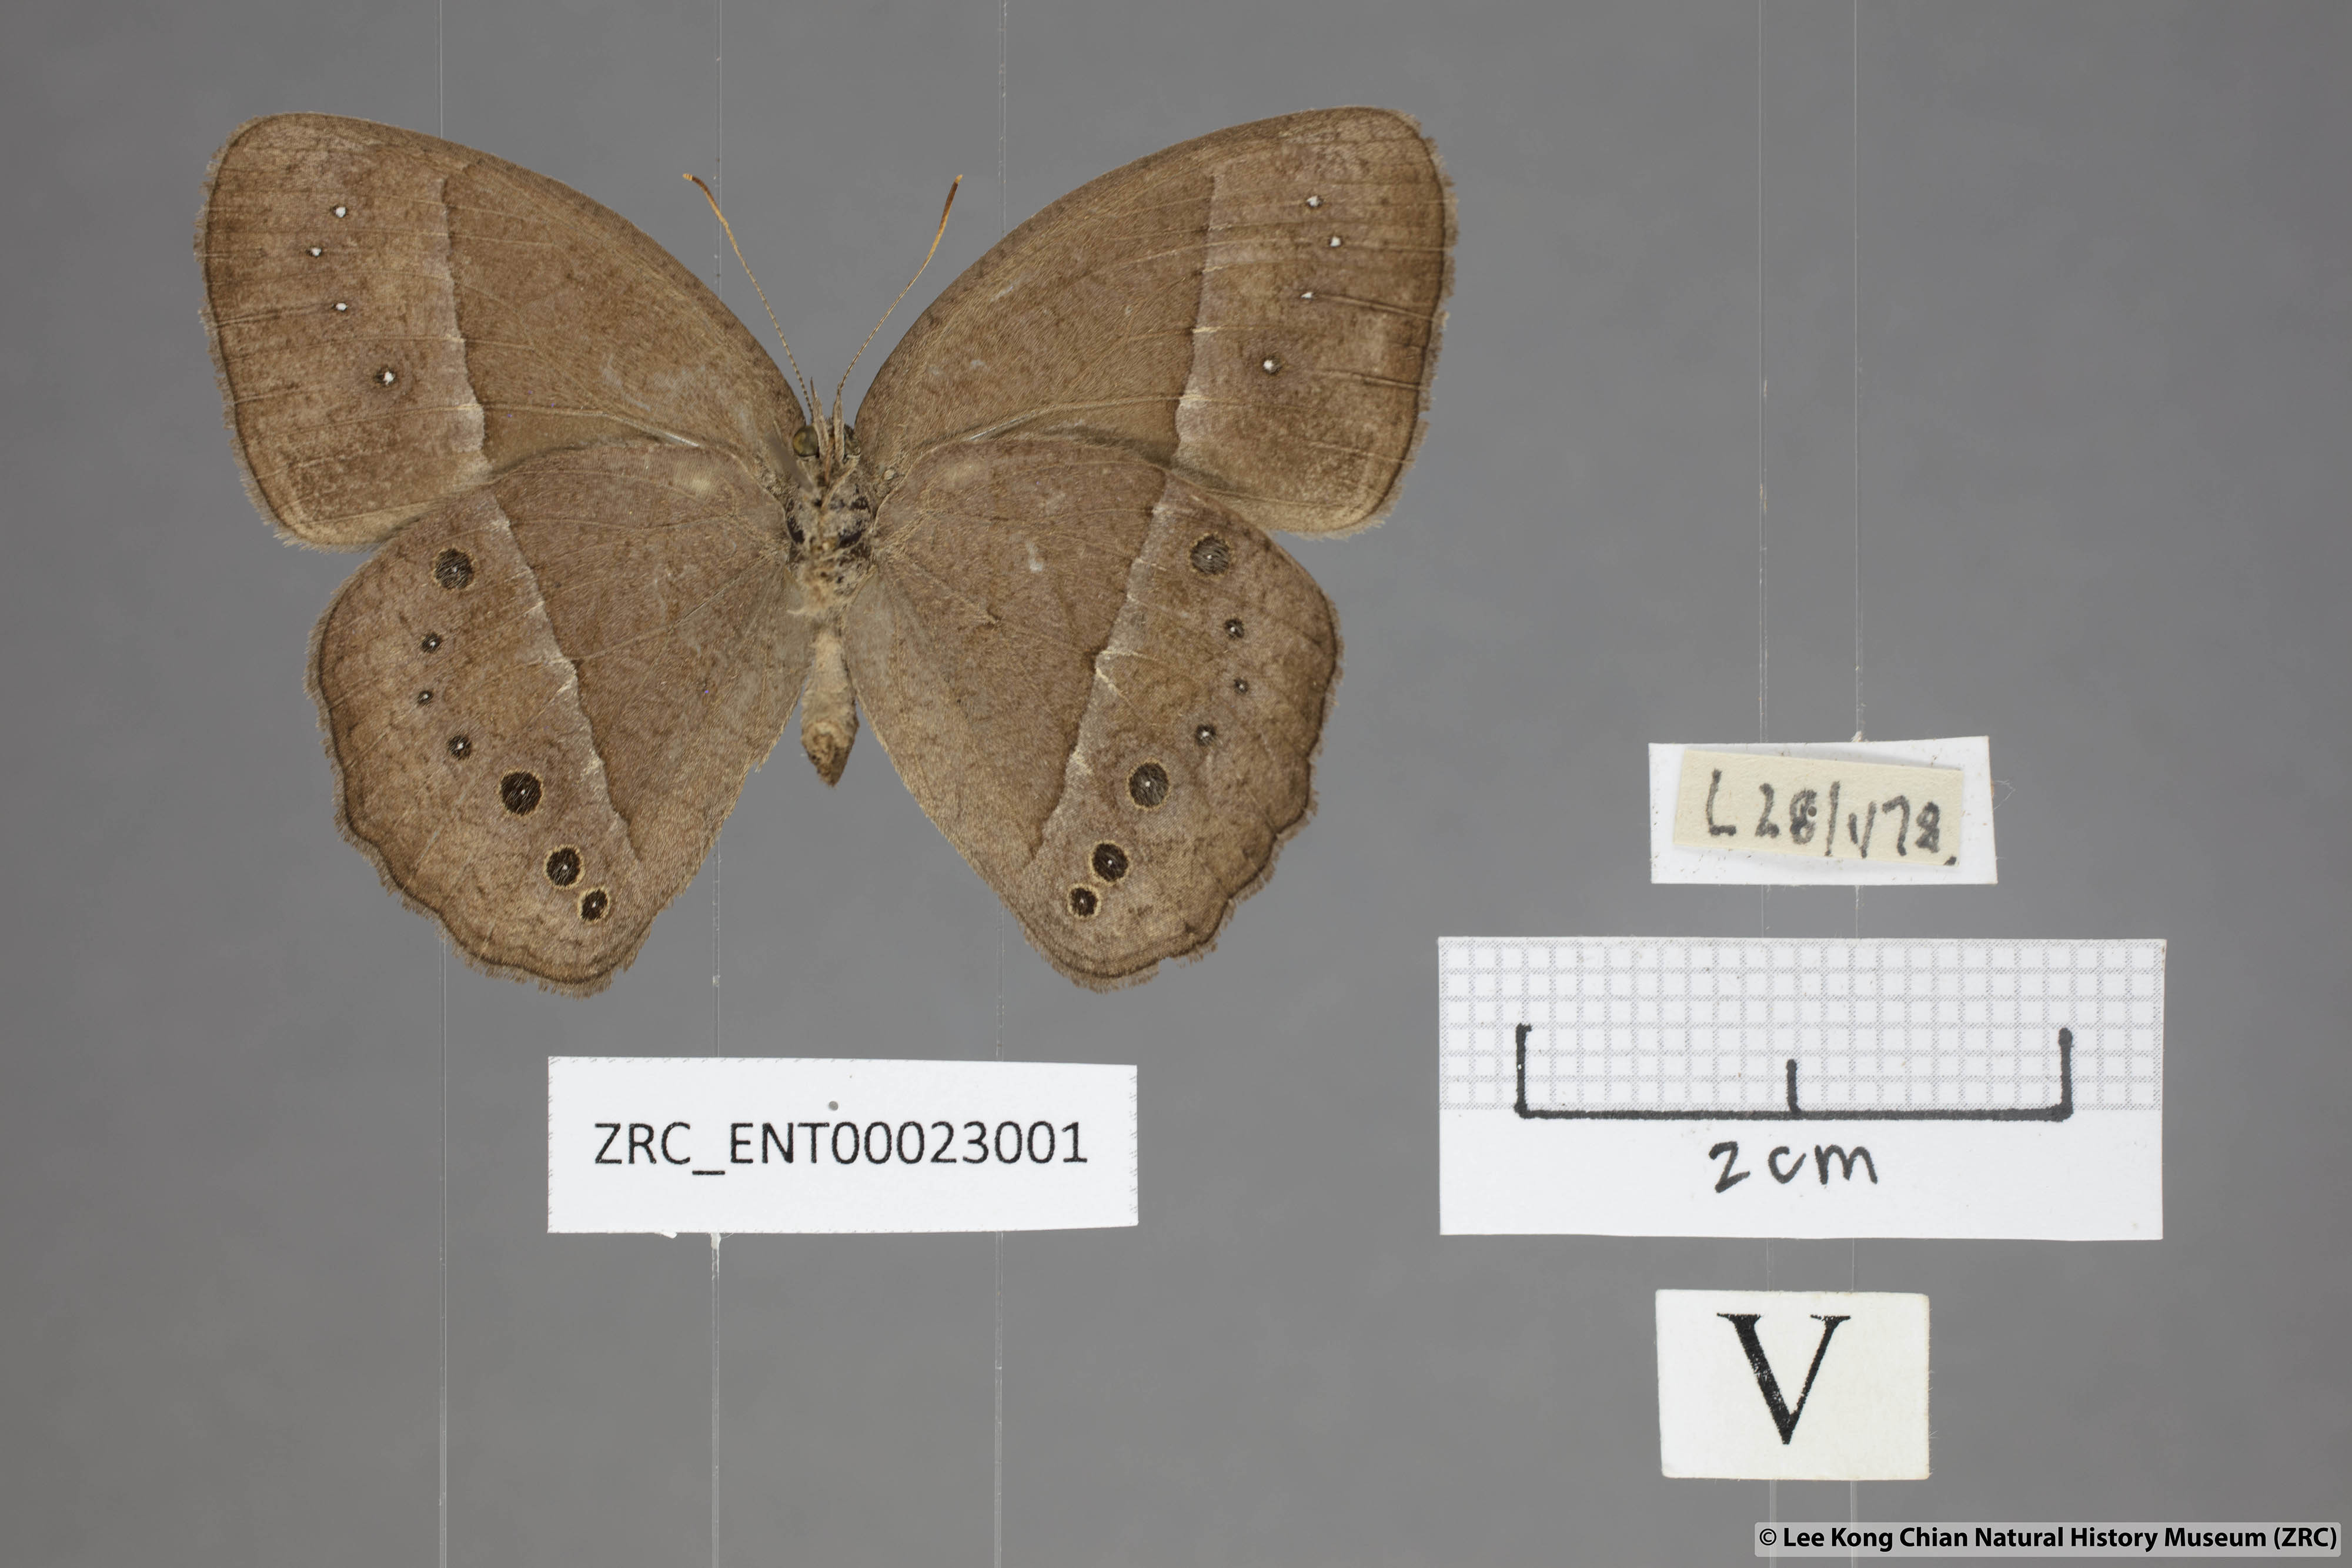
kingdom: Animalia
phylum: Arthropoda
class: Insecta
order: Lepidoptera
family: Nymphalidae
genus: Mycalesis
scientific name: Mycalesis perseus
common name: Dingy bushbrown
